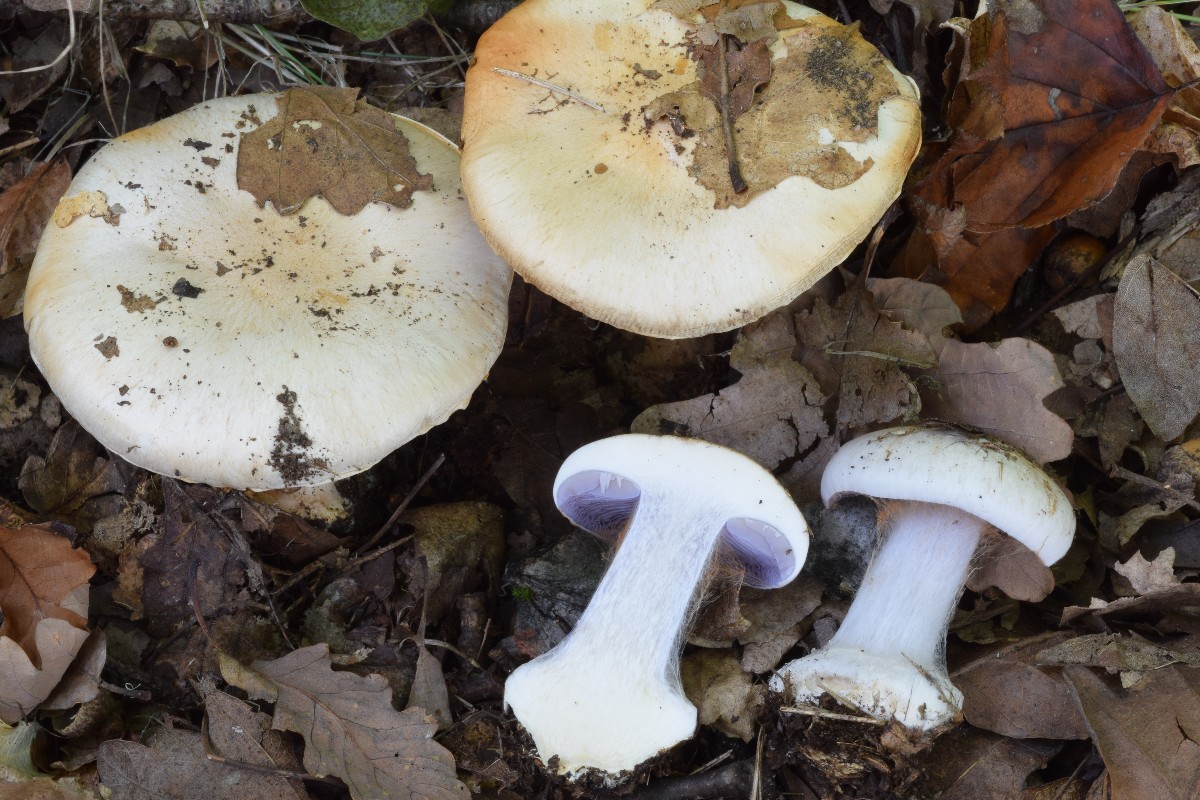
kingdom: Fungi
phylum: Basidiomycota
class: Agaricomycetes
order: Agaricales
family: Cortinariaceae
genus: Phlegmacium
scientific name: Phlegmacium eucaeruleum
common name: indigo-slørhat
